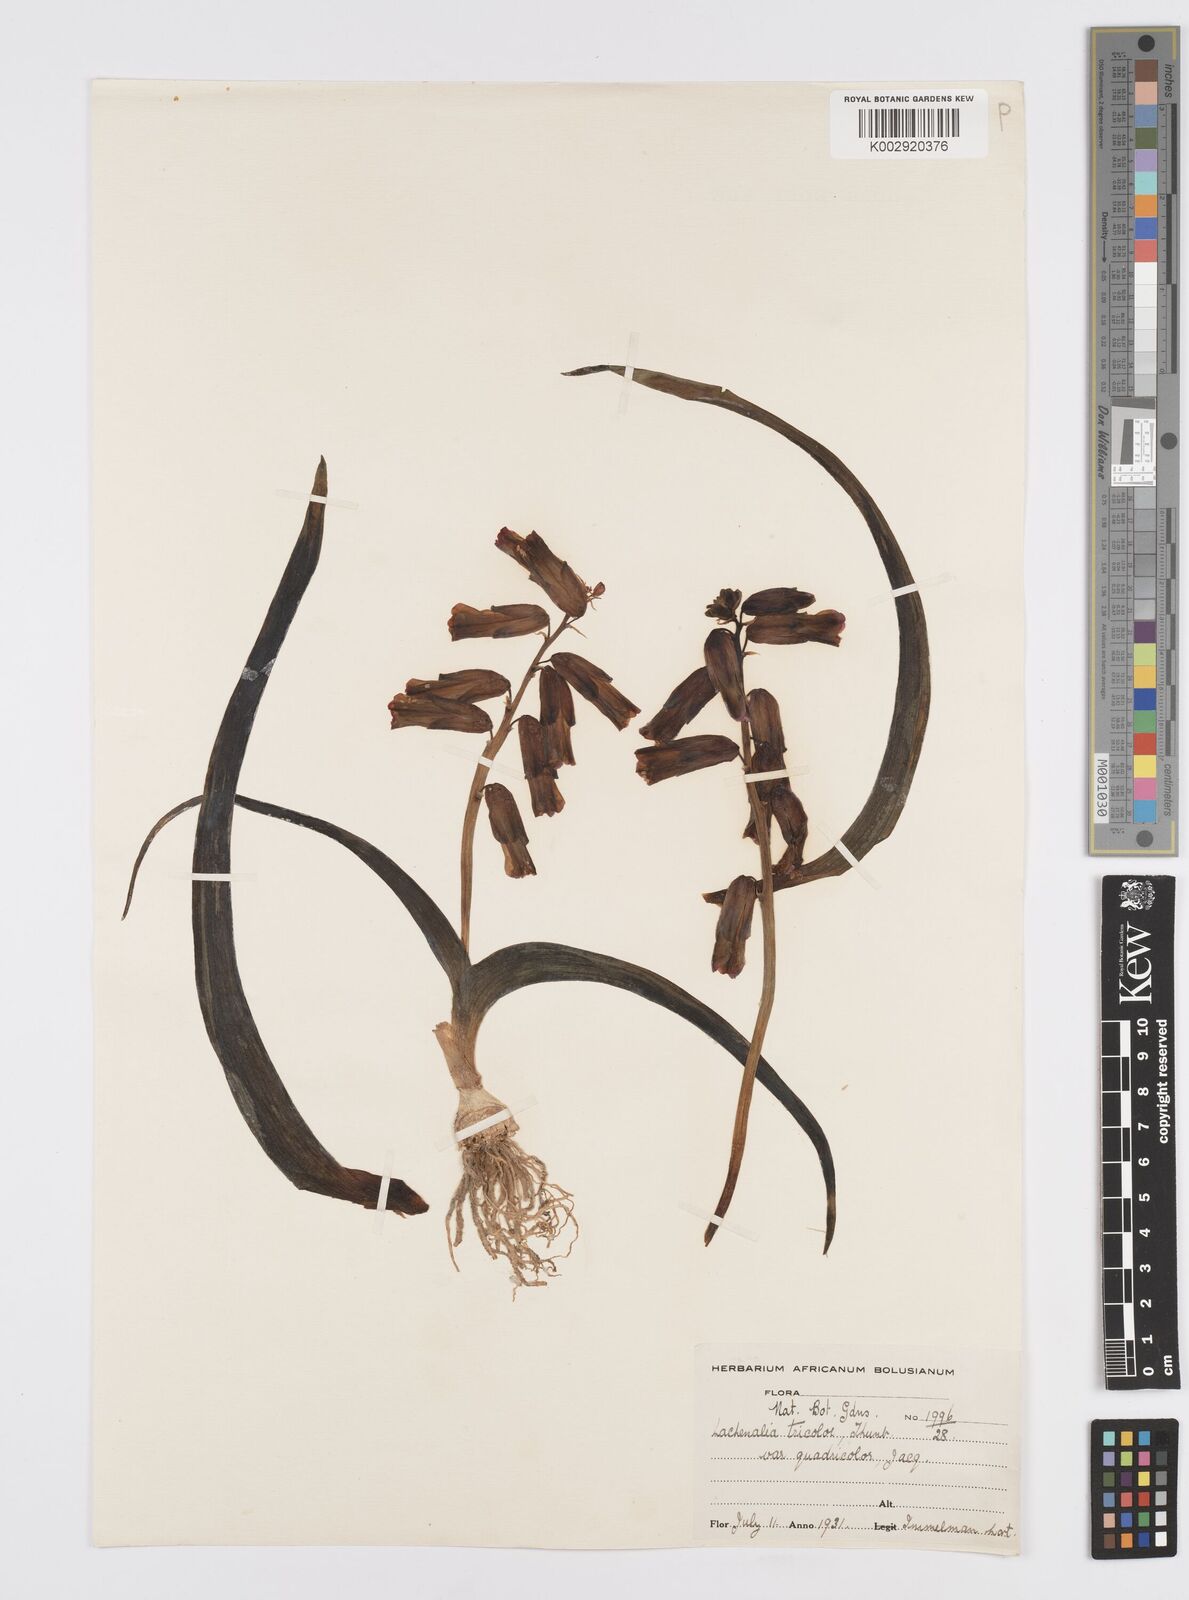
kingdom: Plantae
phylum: Tracheophyta
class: Liliopsida
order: Asparagales
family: Asparagaceae
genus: Lachenalia
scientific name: Lachenalia aloides
